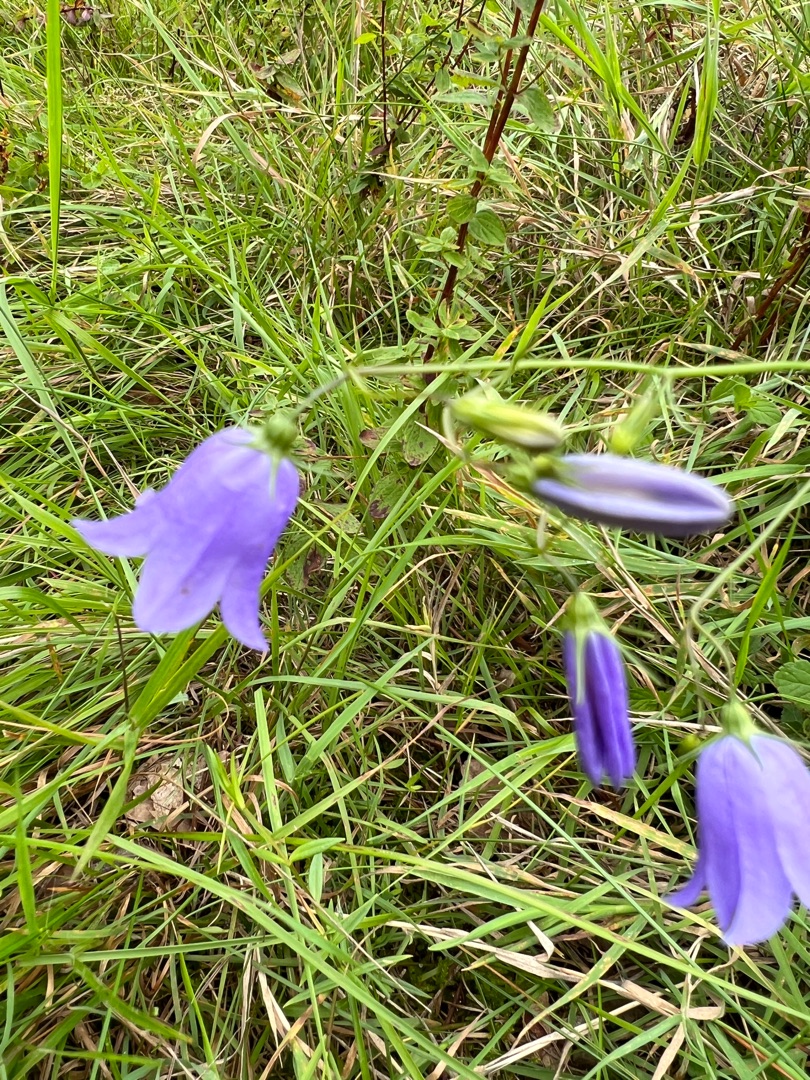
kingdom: Plantae
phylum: Tracheophyta
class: Magnoliopsida
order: Asterales
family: Campanulaceae
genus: Campanula
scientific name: Campanula rotundifolia
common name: Liden klokke
